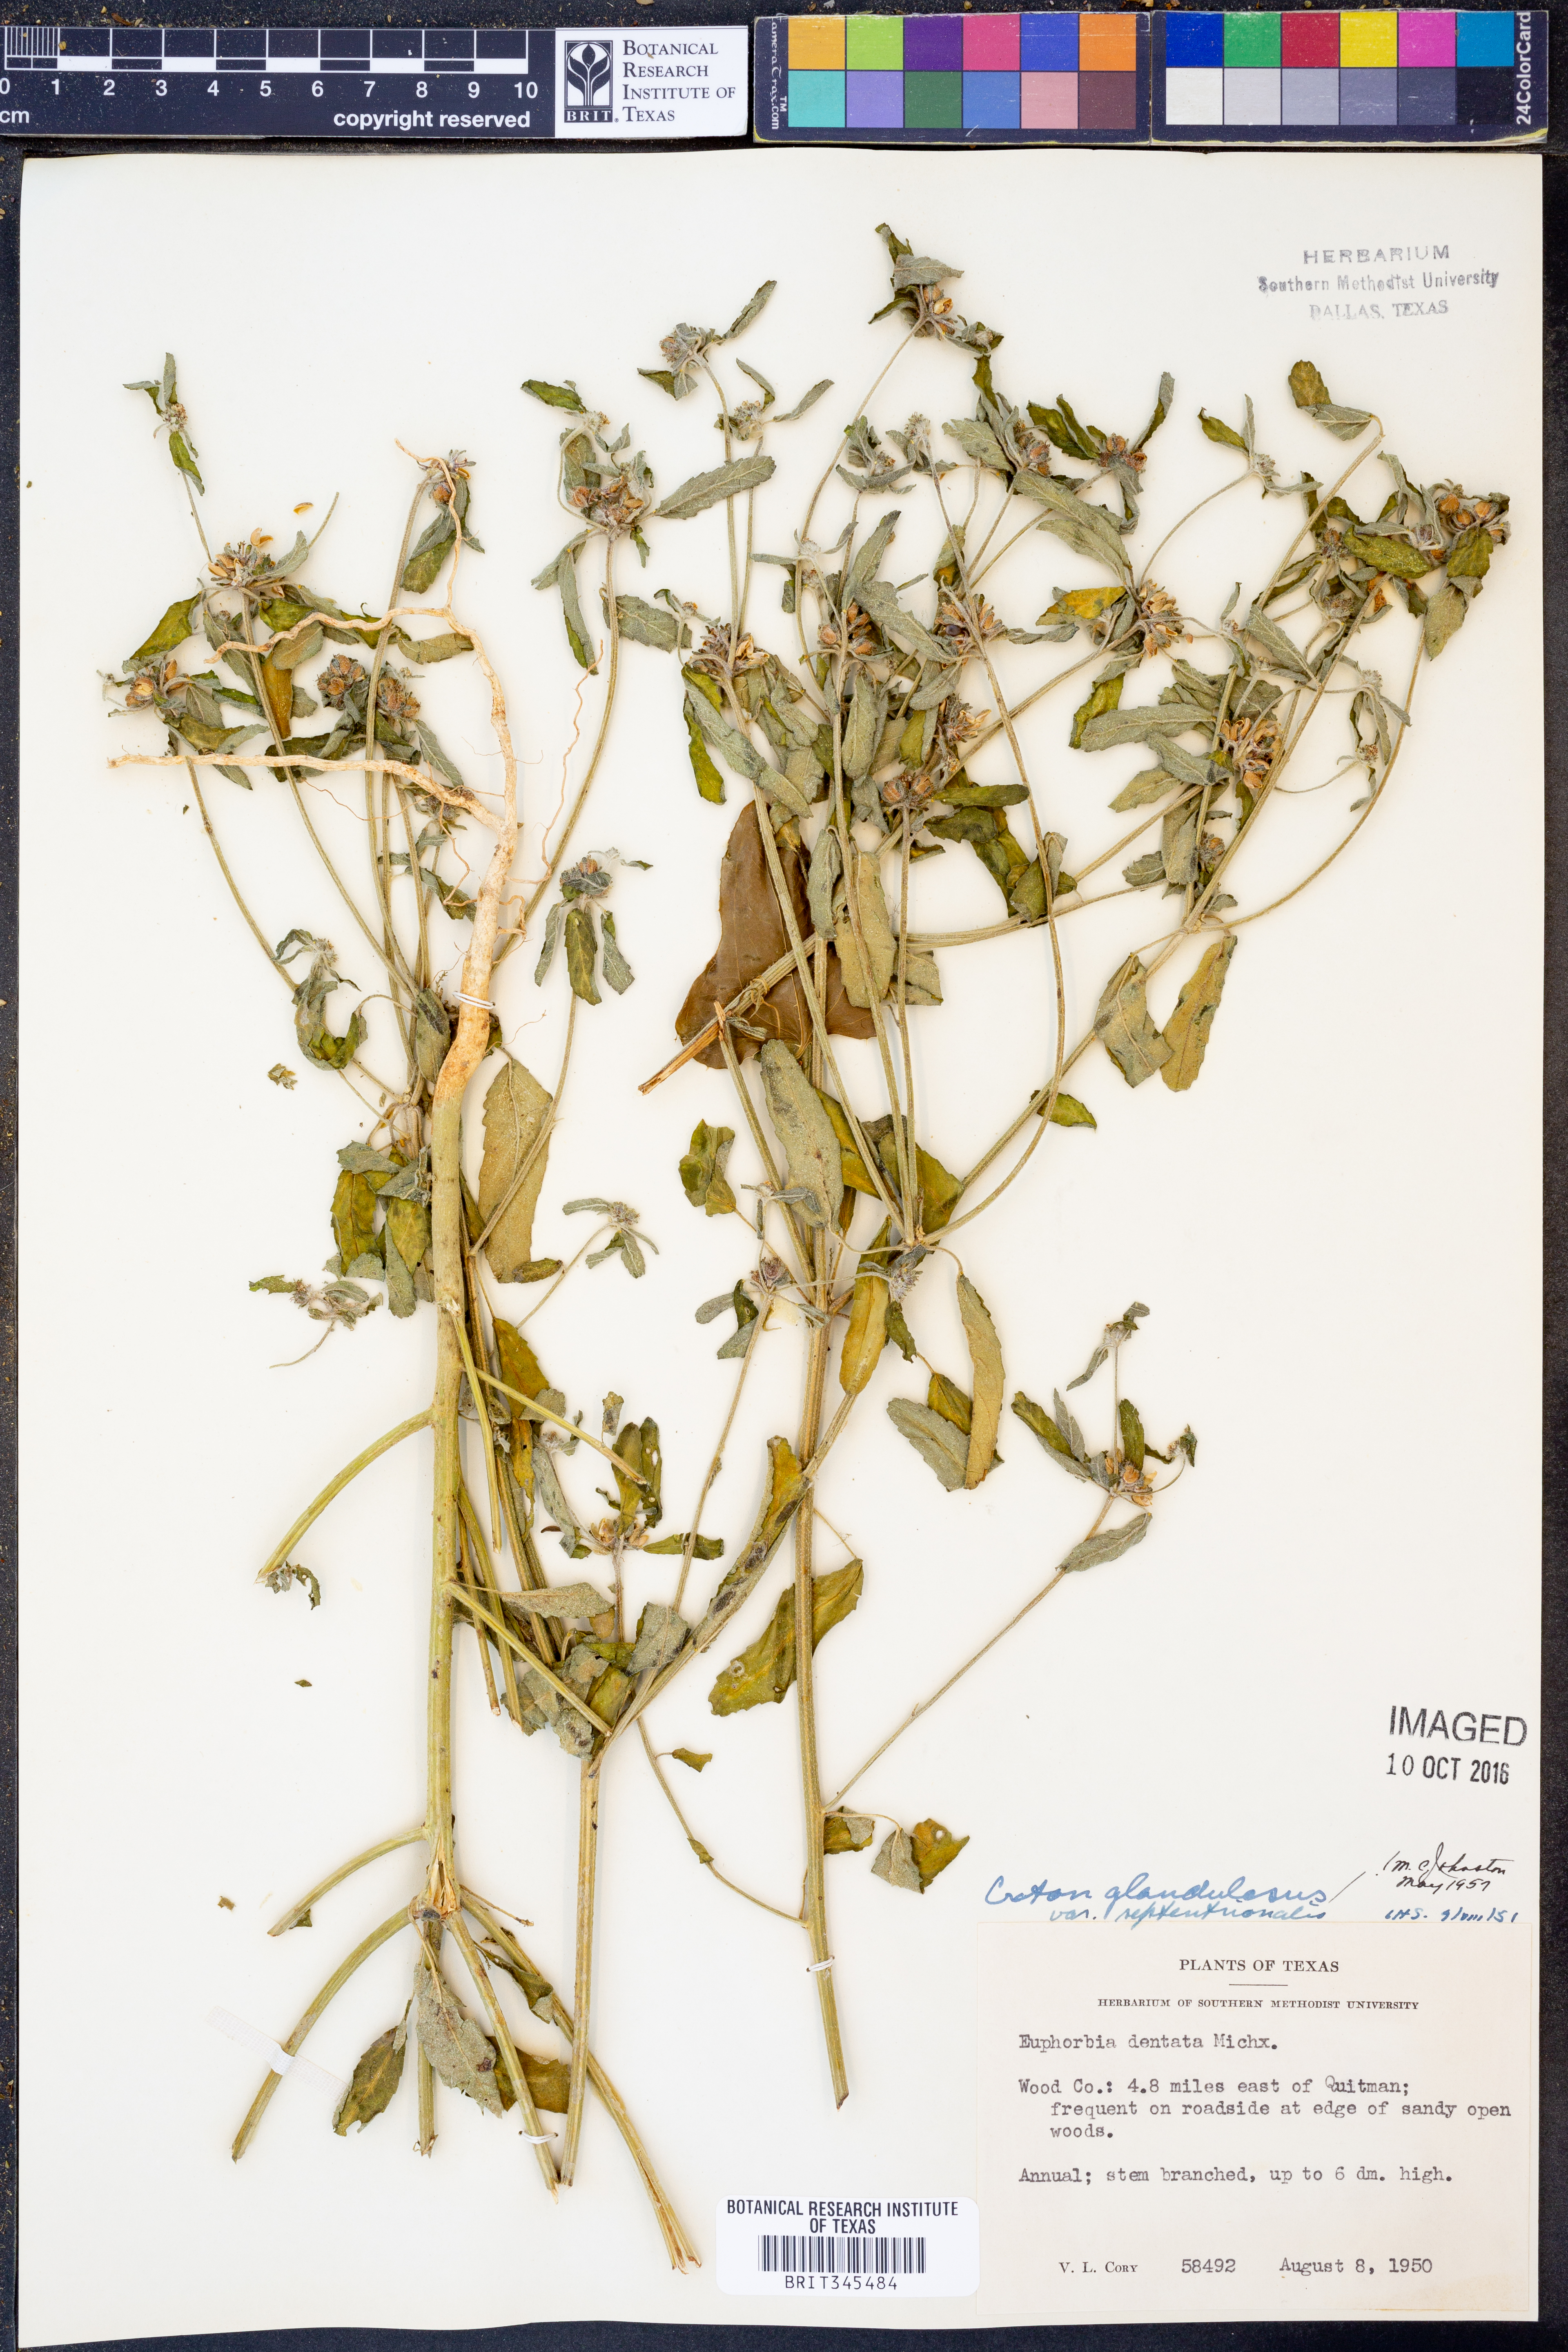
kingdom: Plantae
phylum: Tracheophyta
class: Magnoliopsida
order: Malpighiales
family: Euphorbiaceae
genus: Croton
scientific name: Croton glandulosus
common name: Tropic croton
